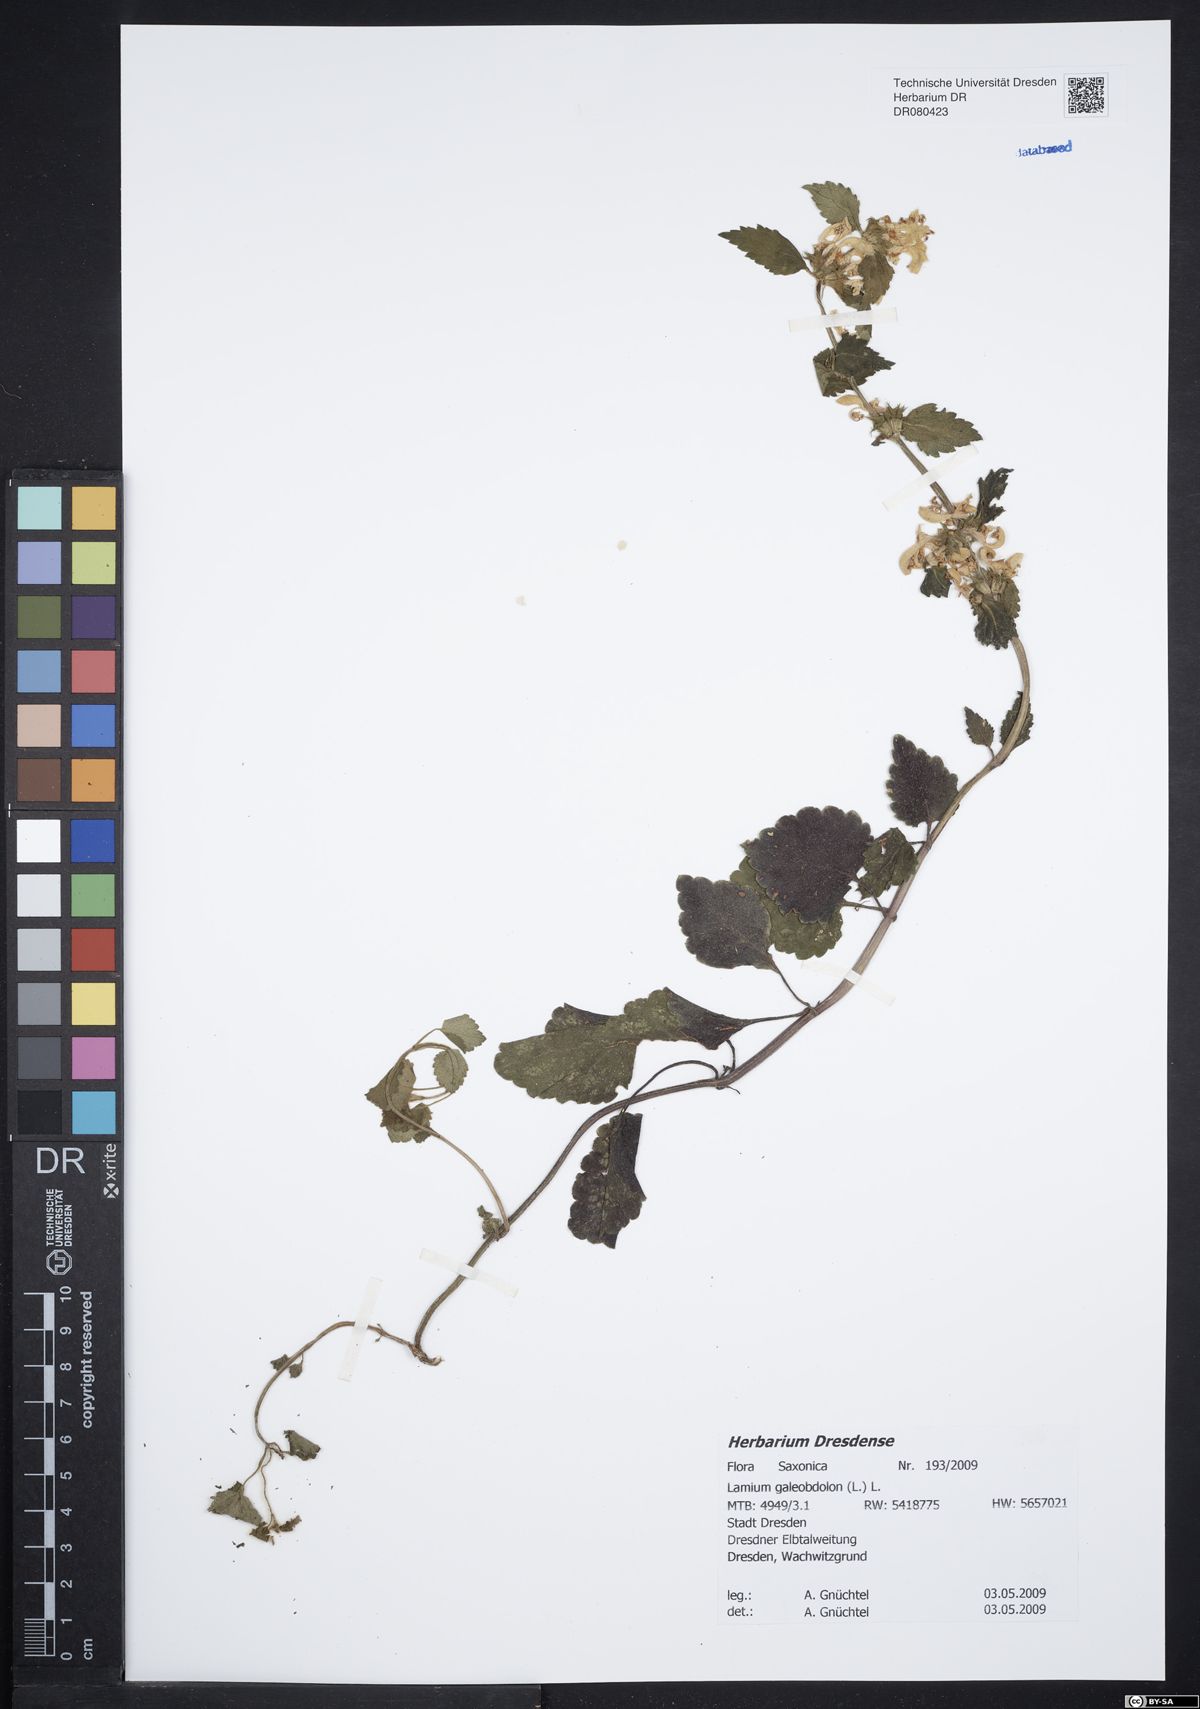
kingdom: Plantae
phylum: Tracheophyta
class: Magnoliopsida
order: Lamiales
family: Lamiaceae
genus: Lamium
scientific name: Lamium galeobdolon
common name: Yellow archangel
